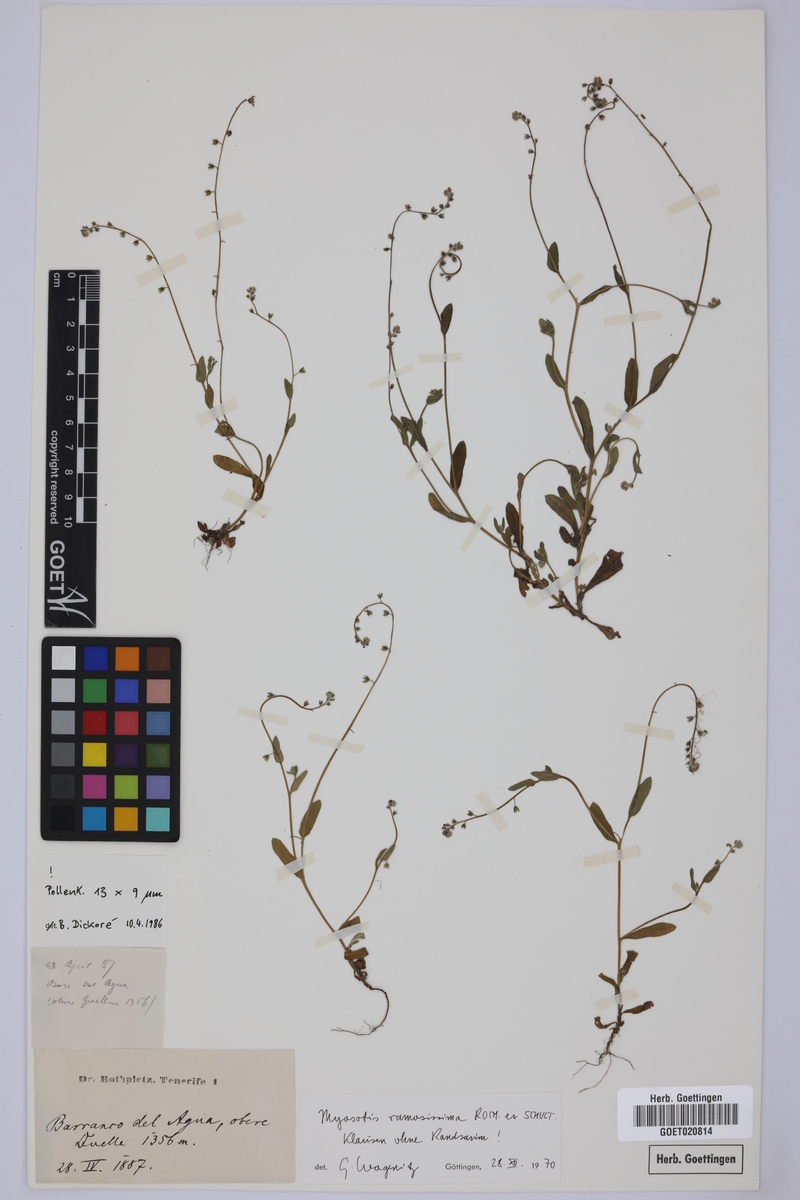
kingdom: Plantae
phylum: Tracheophyta
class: Magnoliopsida
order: Boraginales
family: Boraginaceae
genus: Myosotis
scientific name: Myosotis ramosissima
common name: Early forget-me-not
